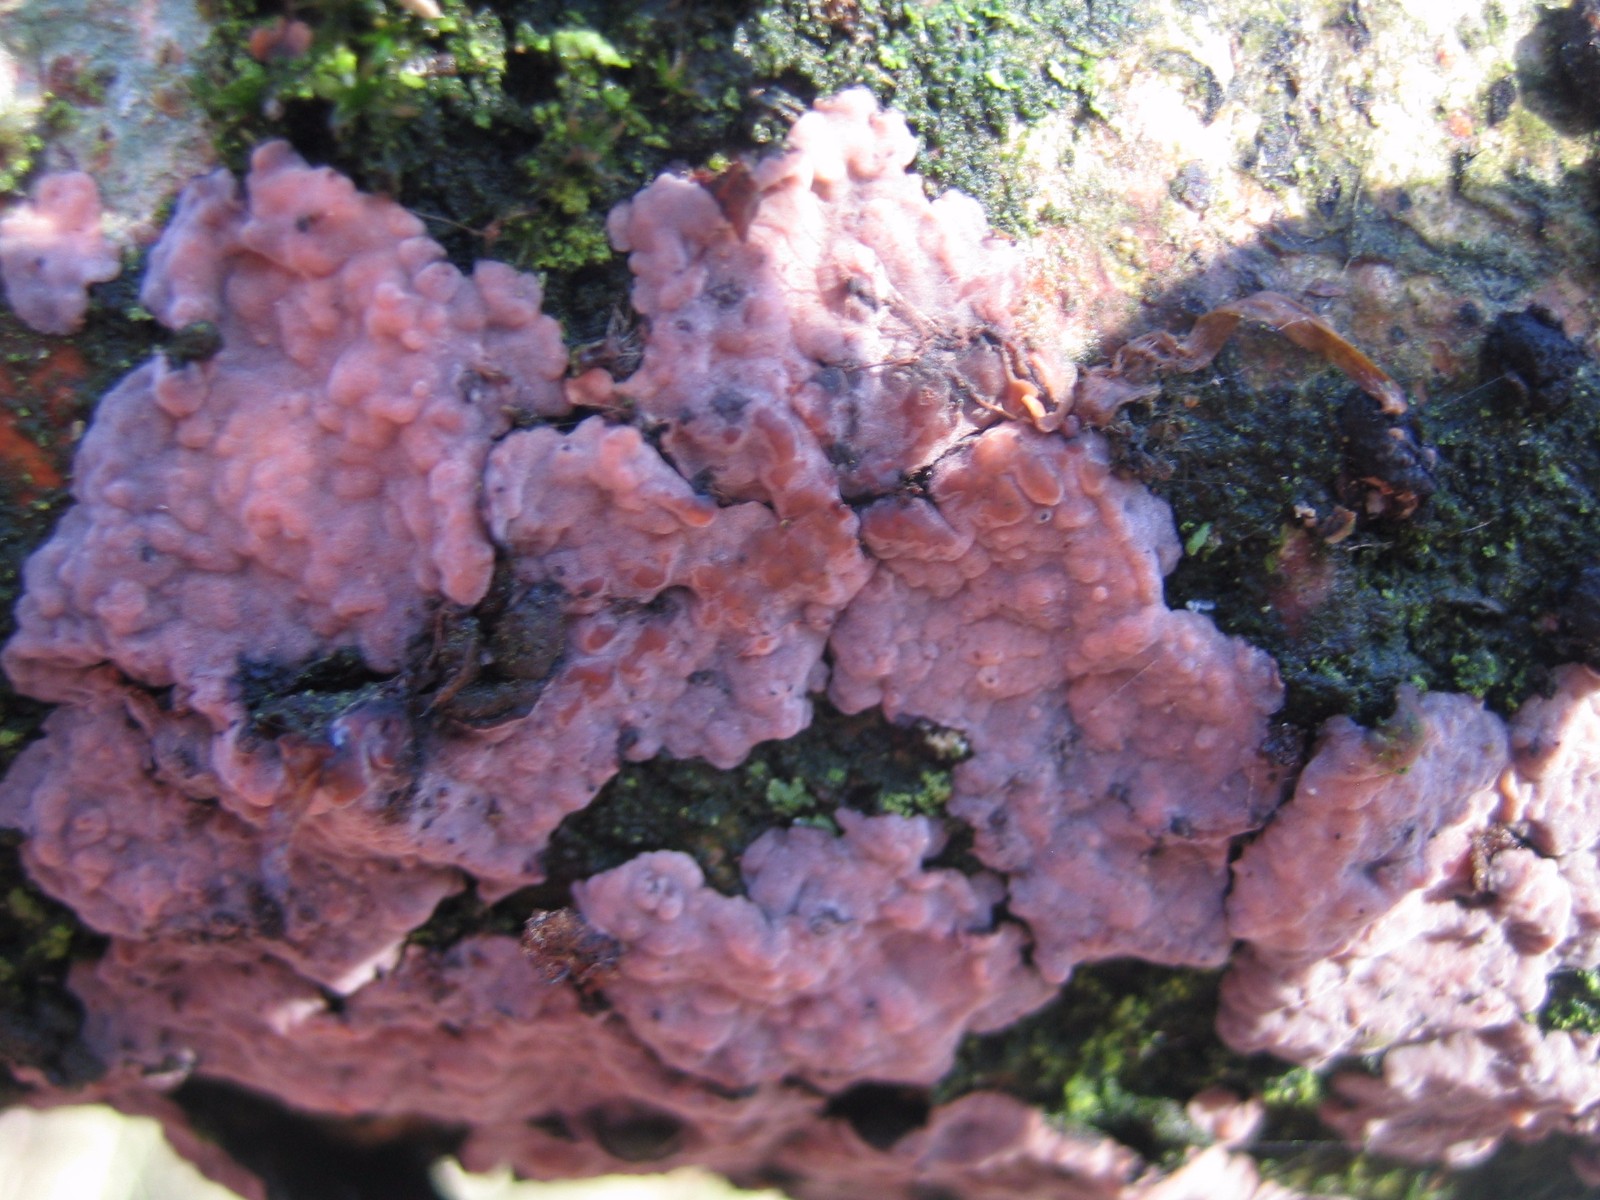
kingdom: Fungi
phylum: Basidiomycota
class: Agaricomycetes
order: Russulales
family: Peniophoraceae
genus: Peniophora
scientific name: Peniophora quercina
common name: ege-voksskind
